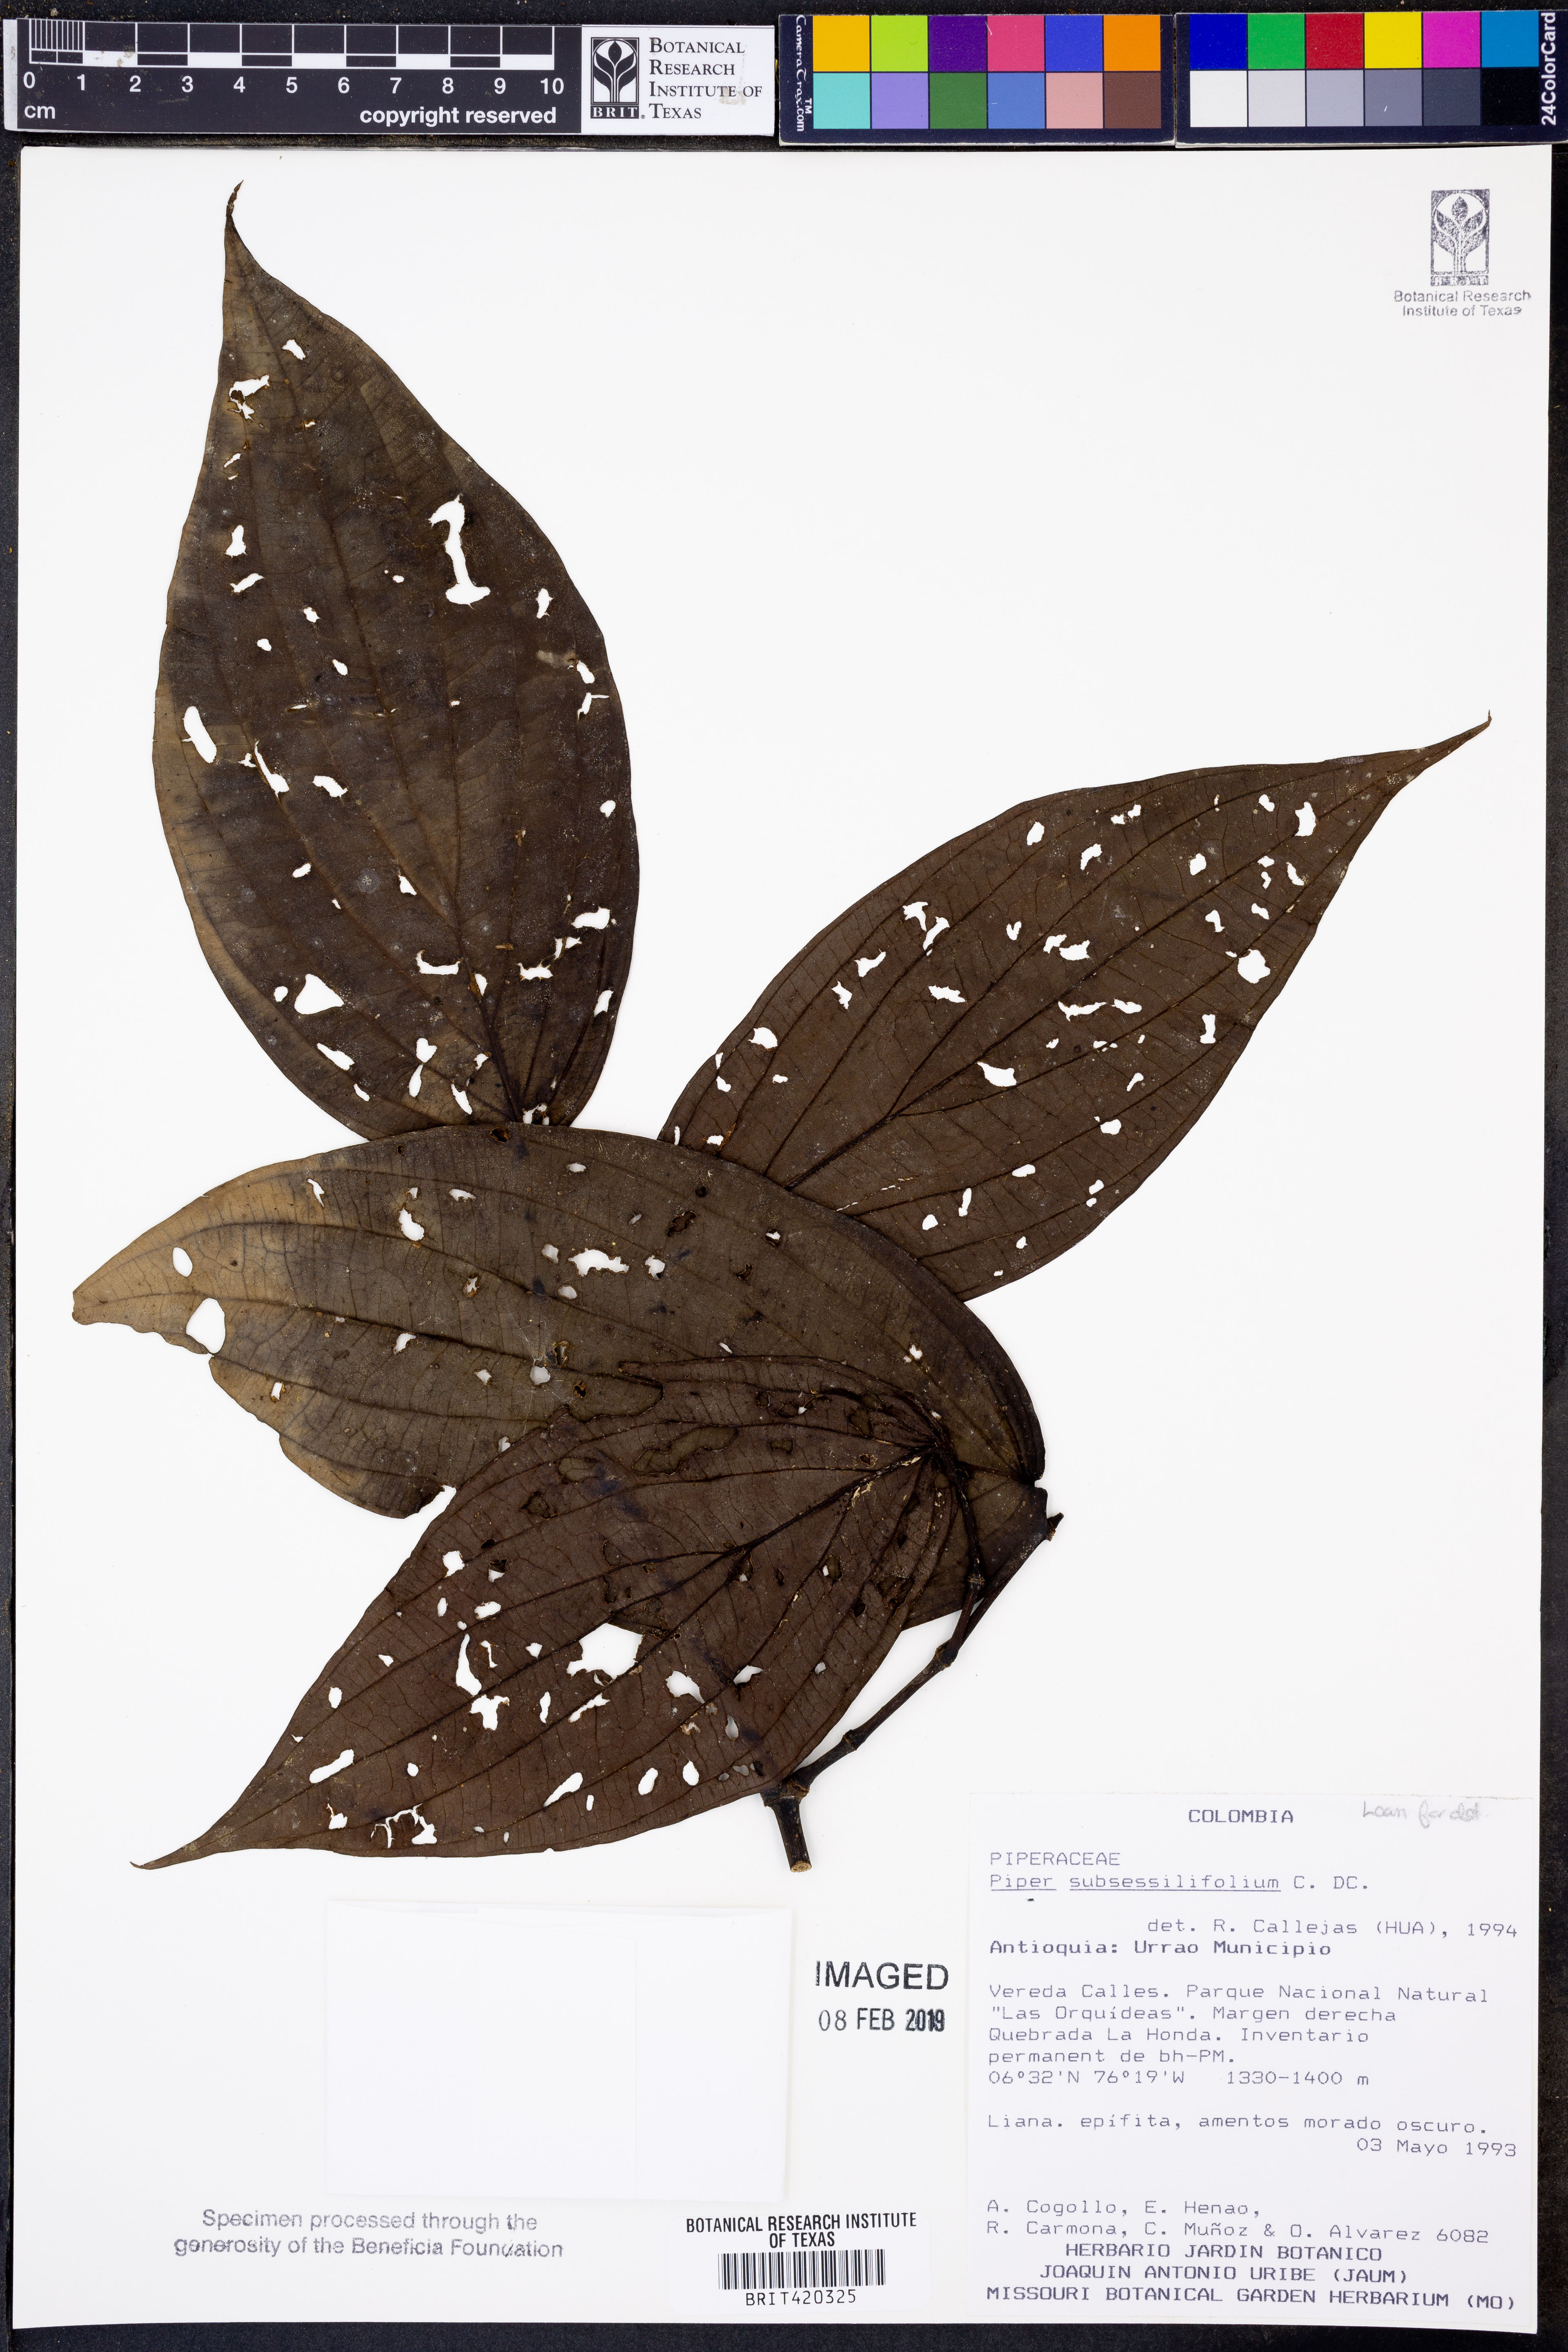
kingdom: Plantae
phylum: Tracheophyta
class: Magnoliopsida
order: Piperales
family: Piperaceae
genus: Piper
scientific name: Piper subsessilifolium
